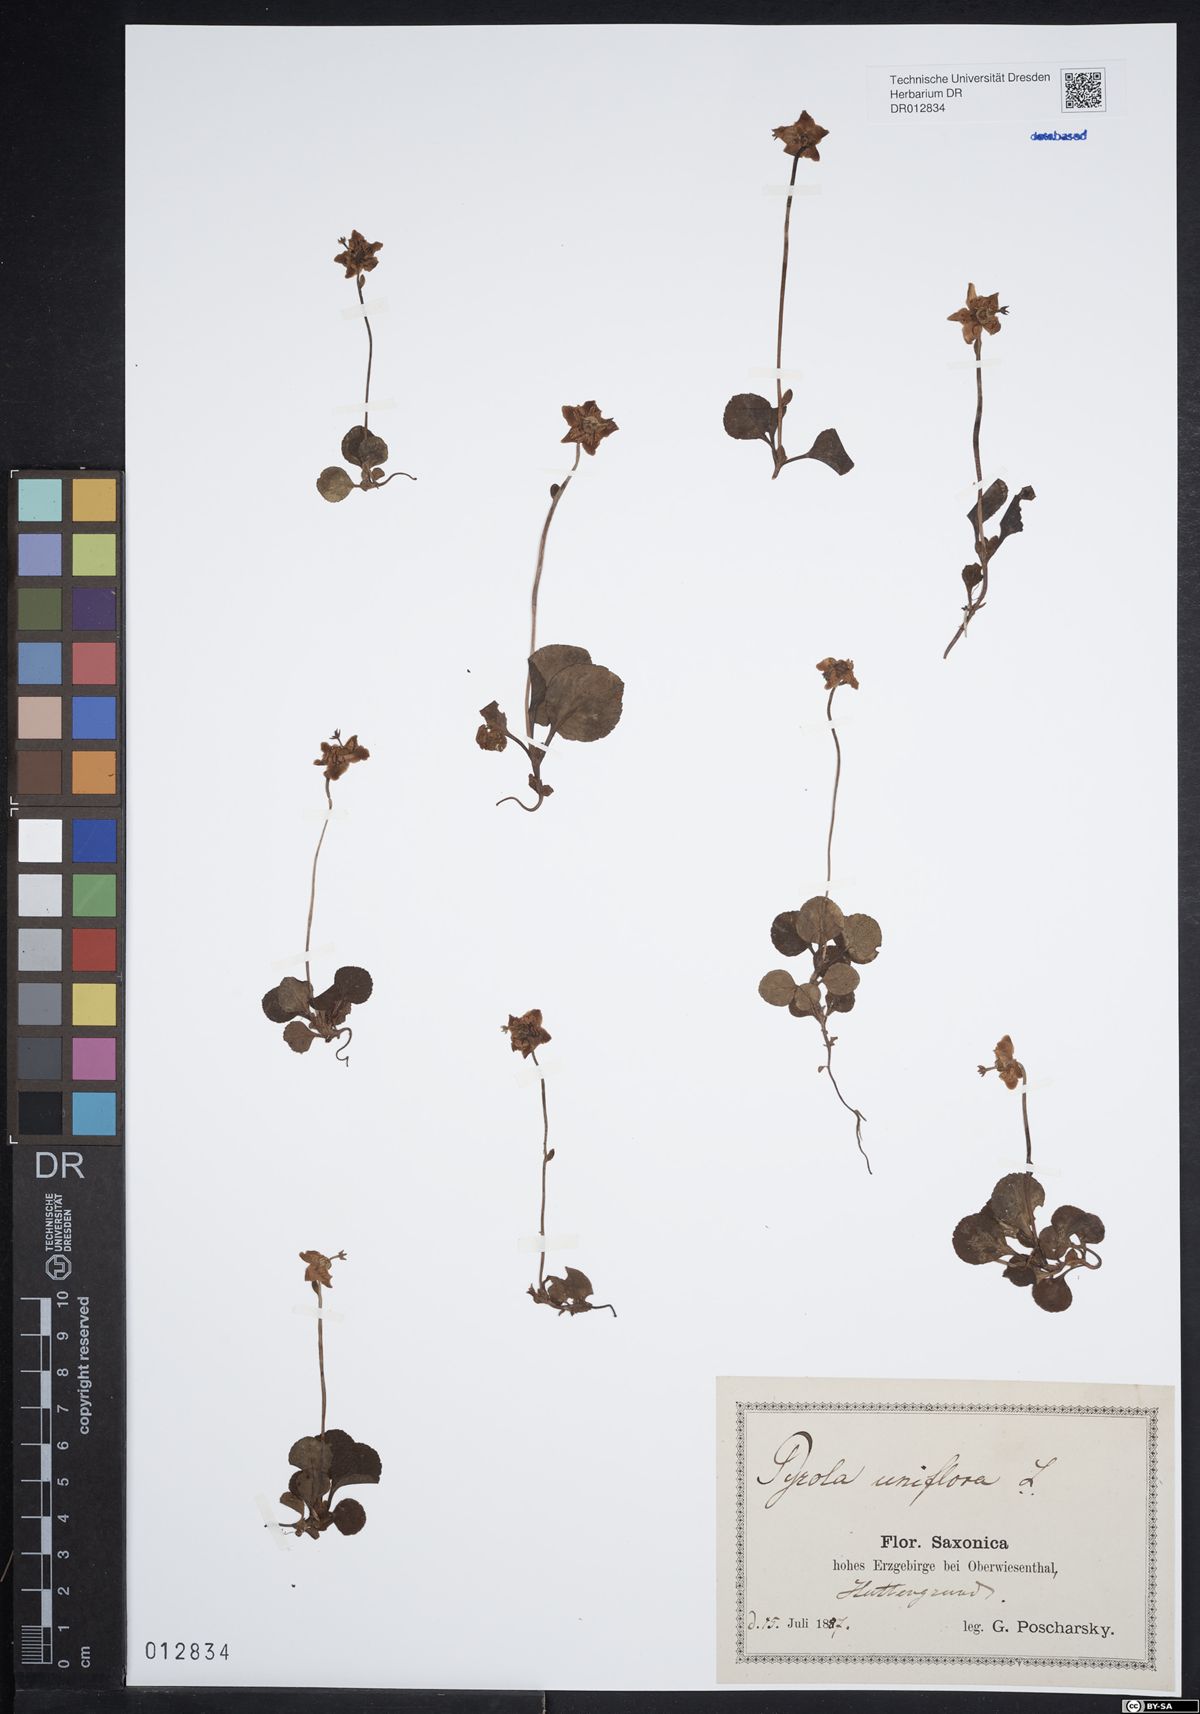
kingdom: Plantae
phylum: Tracheophyta
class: Magnoliopsida
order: Ericales
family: Ericaceae
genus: Moneses
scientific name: Moneses uniflora
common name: One-flowered wintergreen
